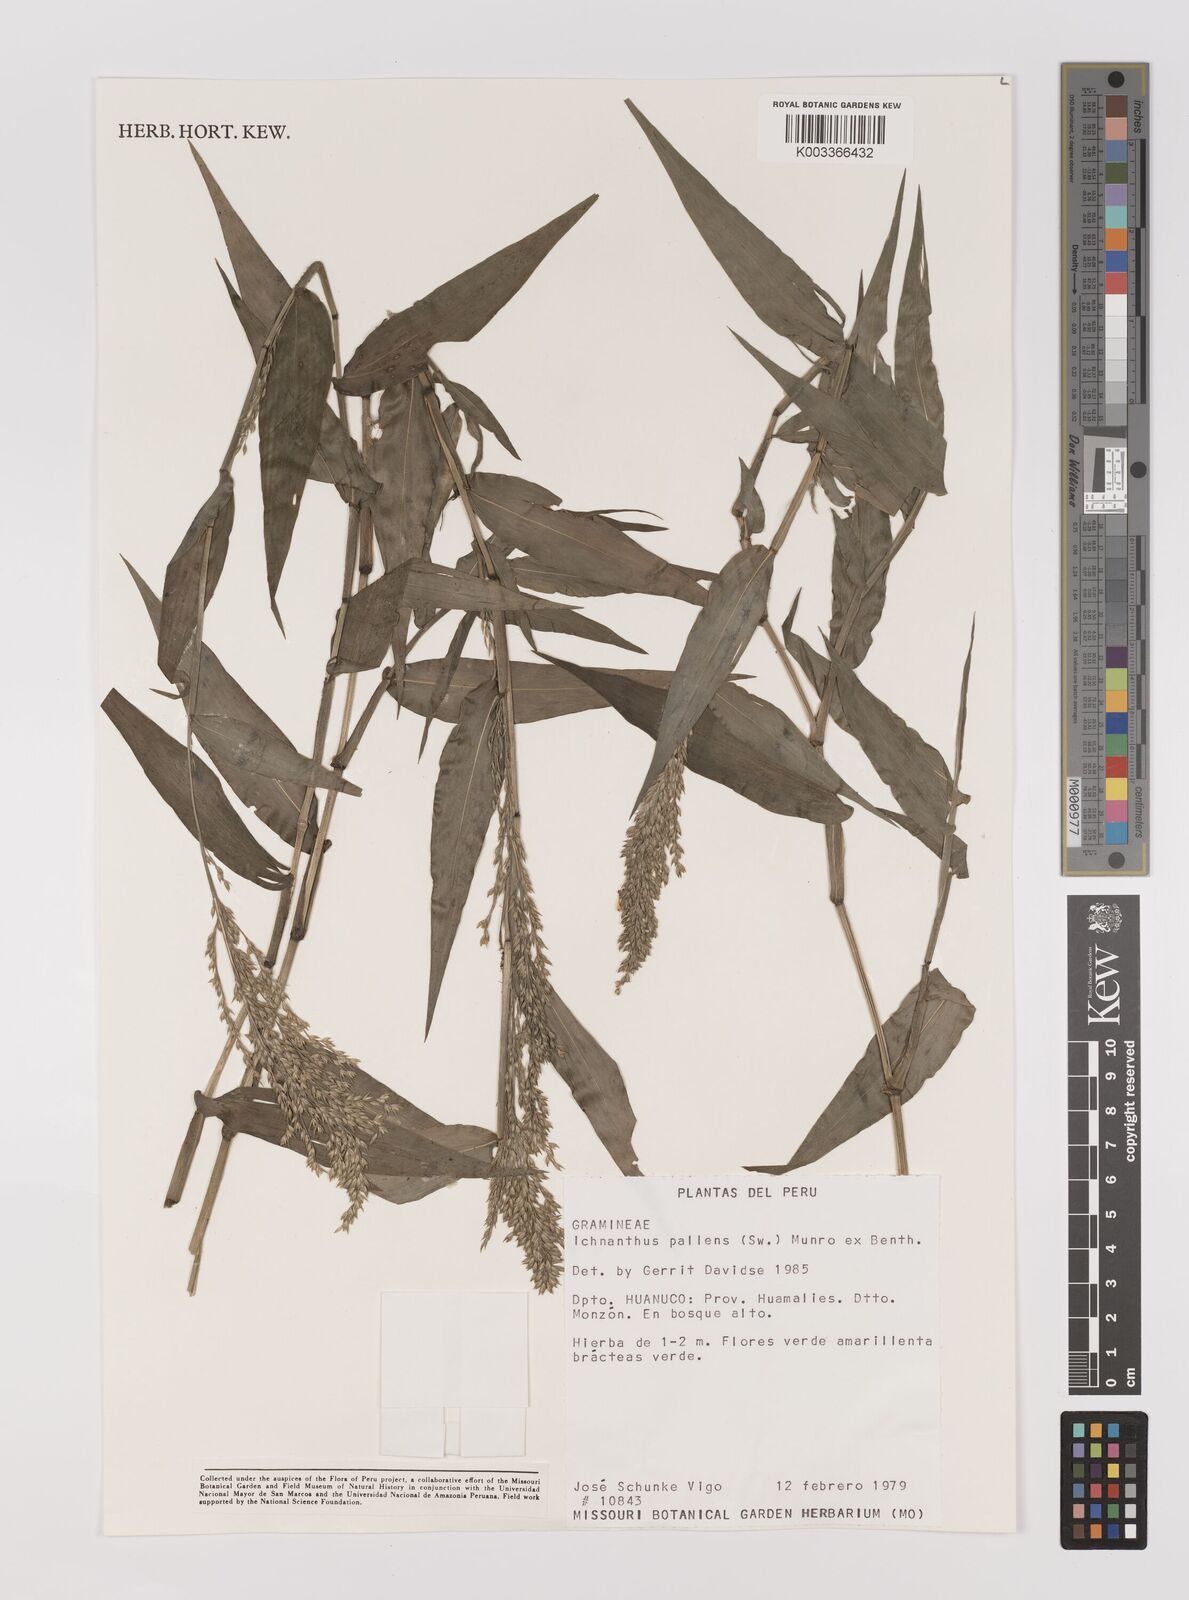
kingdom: Plantae
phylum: Tracheophyta
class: Liliopsida
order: Poales
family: Poaceae
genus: Ichnanthus
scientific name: Ichnanthus pallens
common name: Water grass
